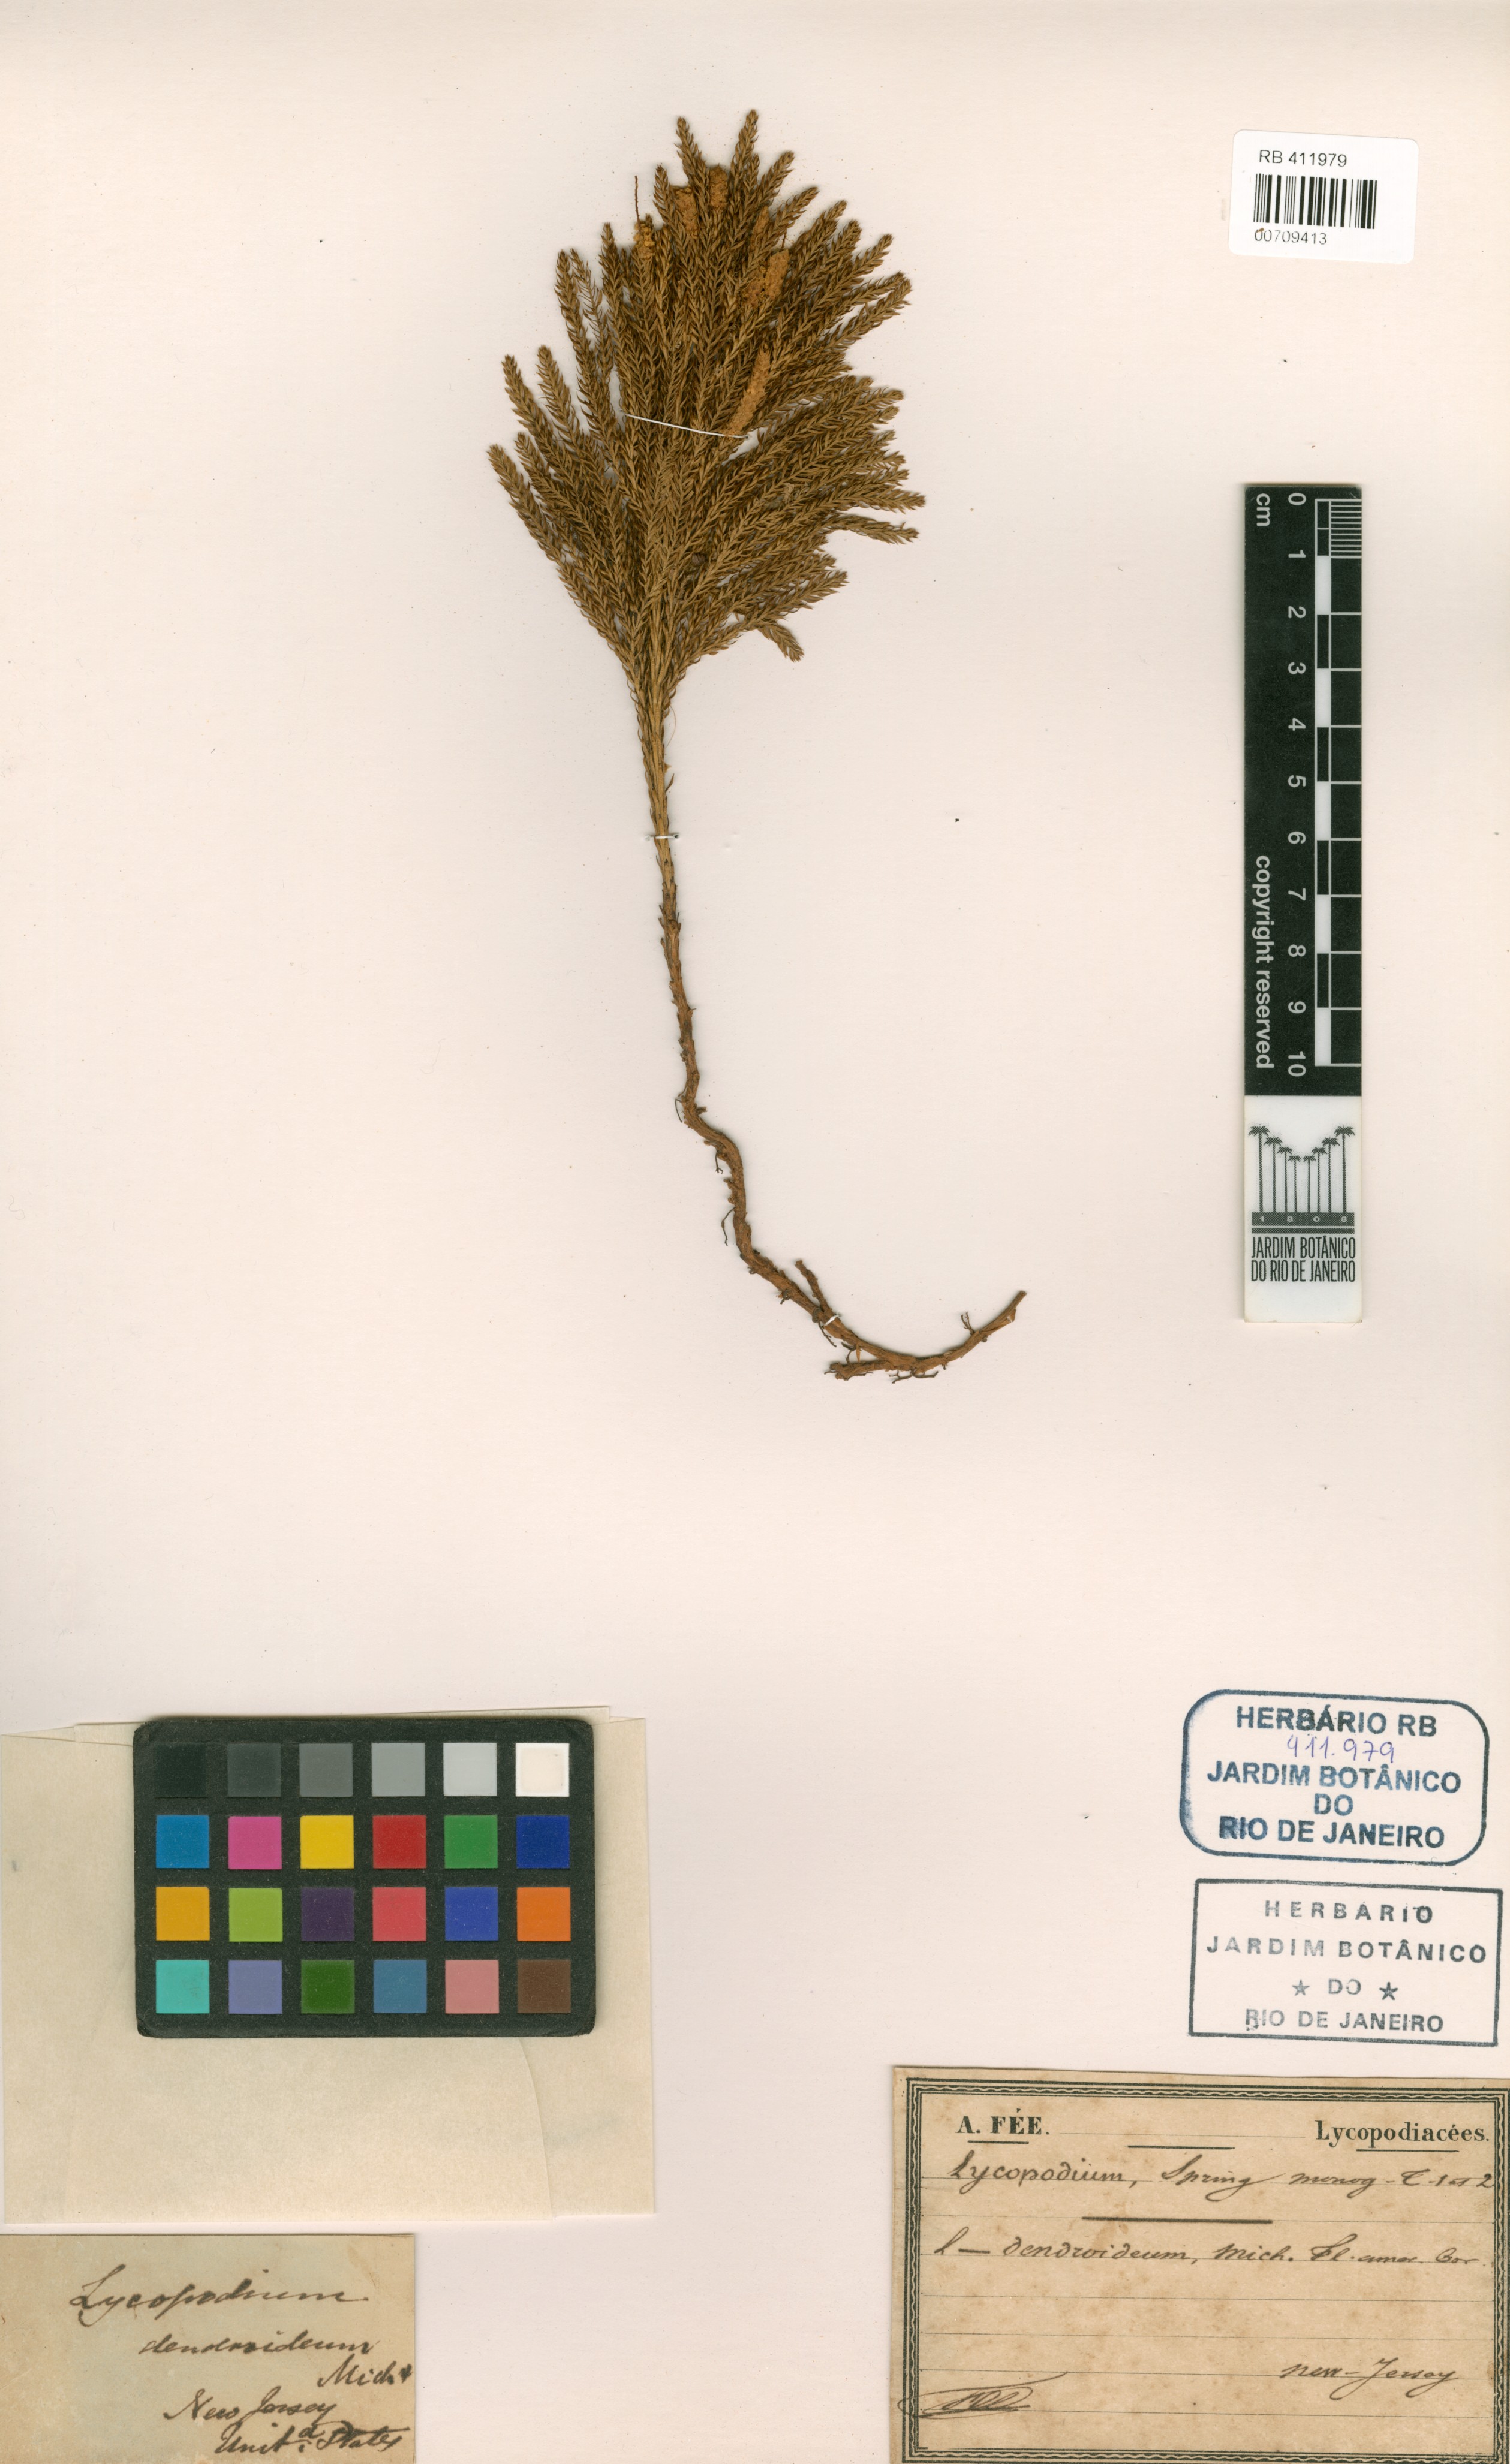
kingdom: Plantae
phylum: Tracheophyta
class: Lycopodiopsida
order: Lycopodiales
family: Lycopodiaceae
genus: Dendrolycopodium
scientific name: Dendrolycopodium dendroideum
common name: Northern tree-clubmoss
